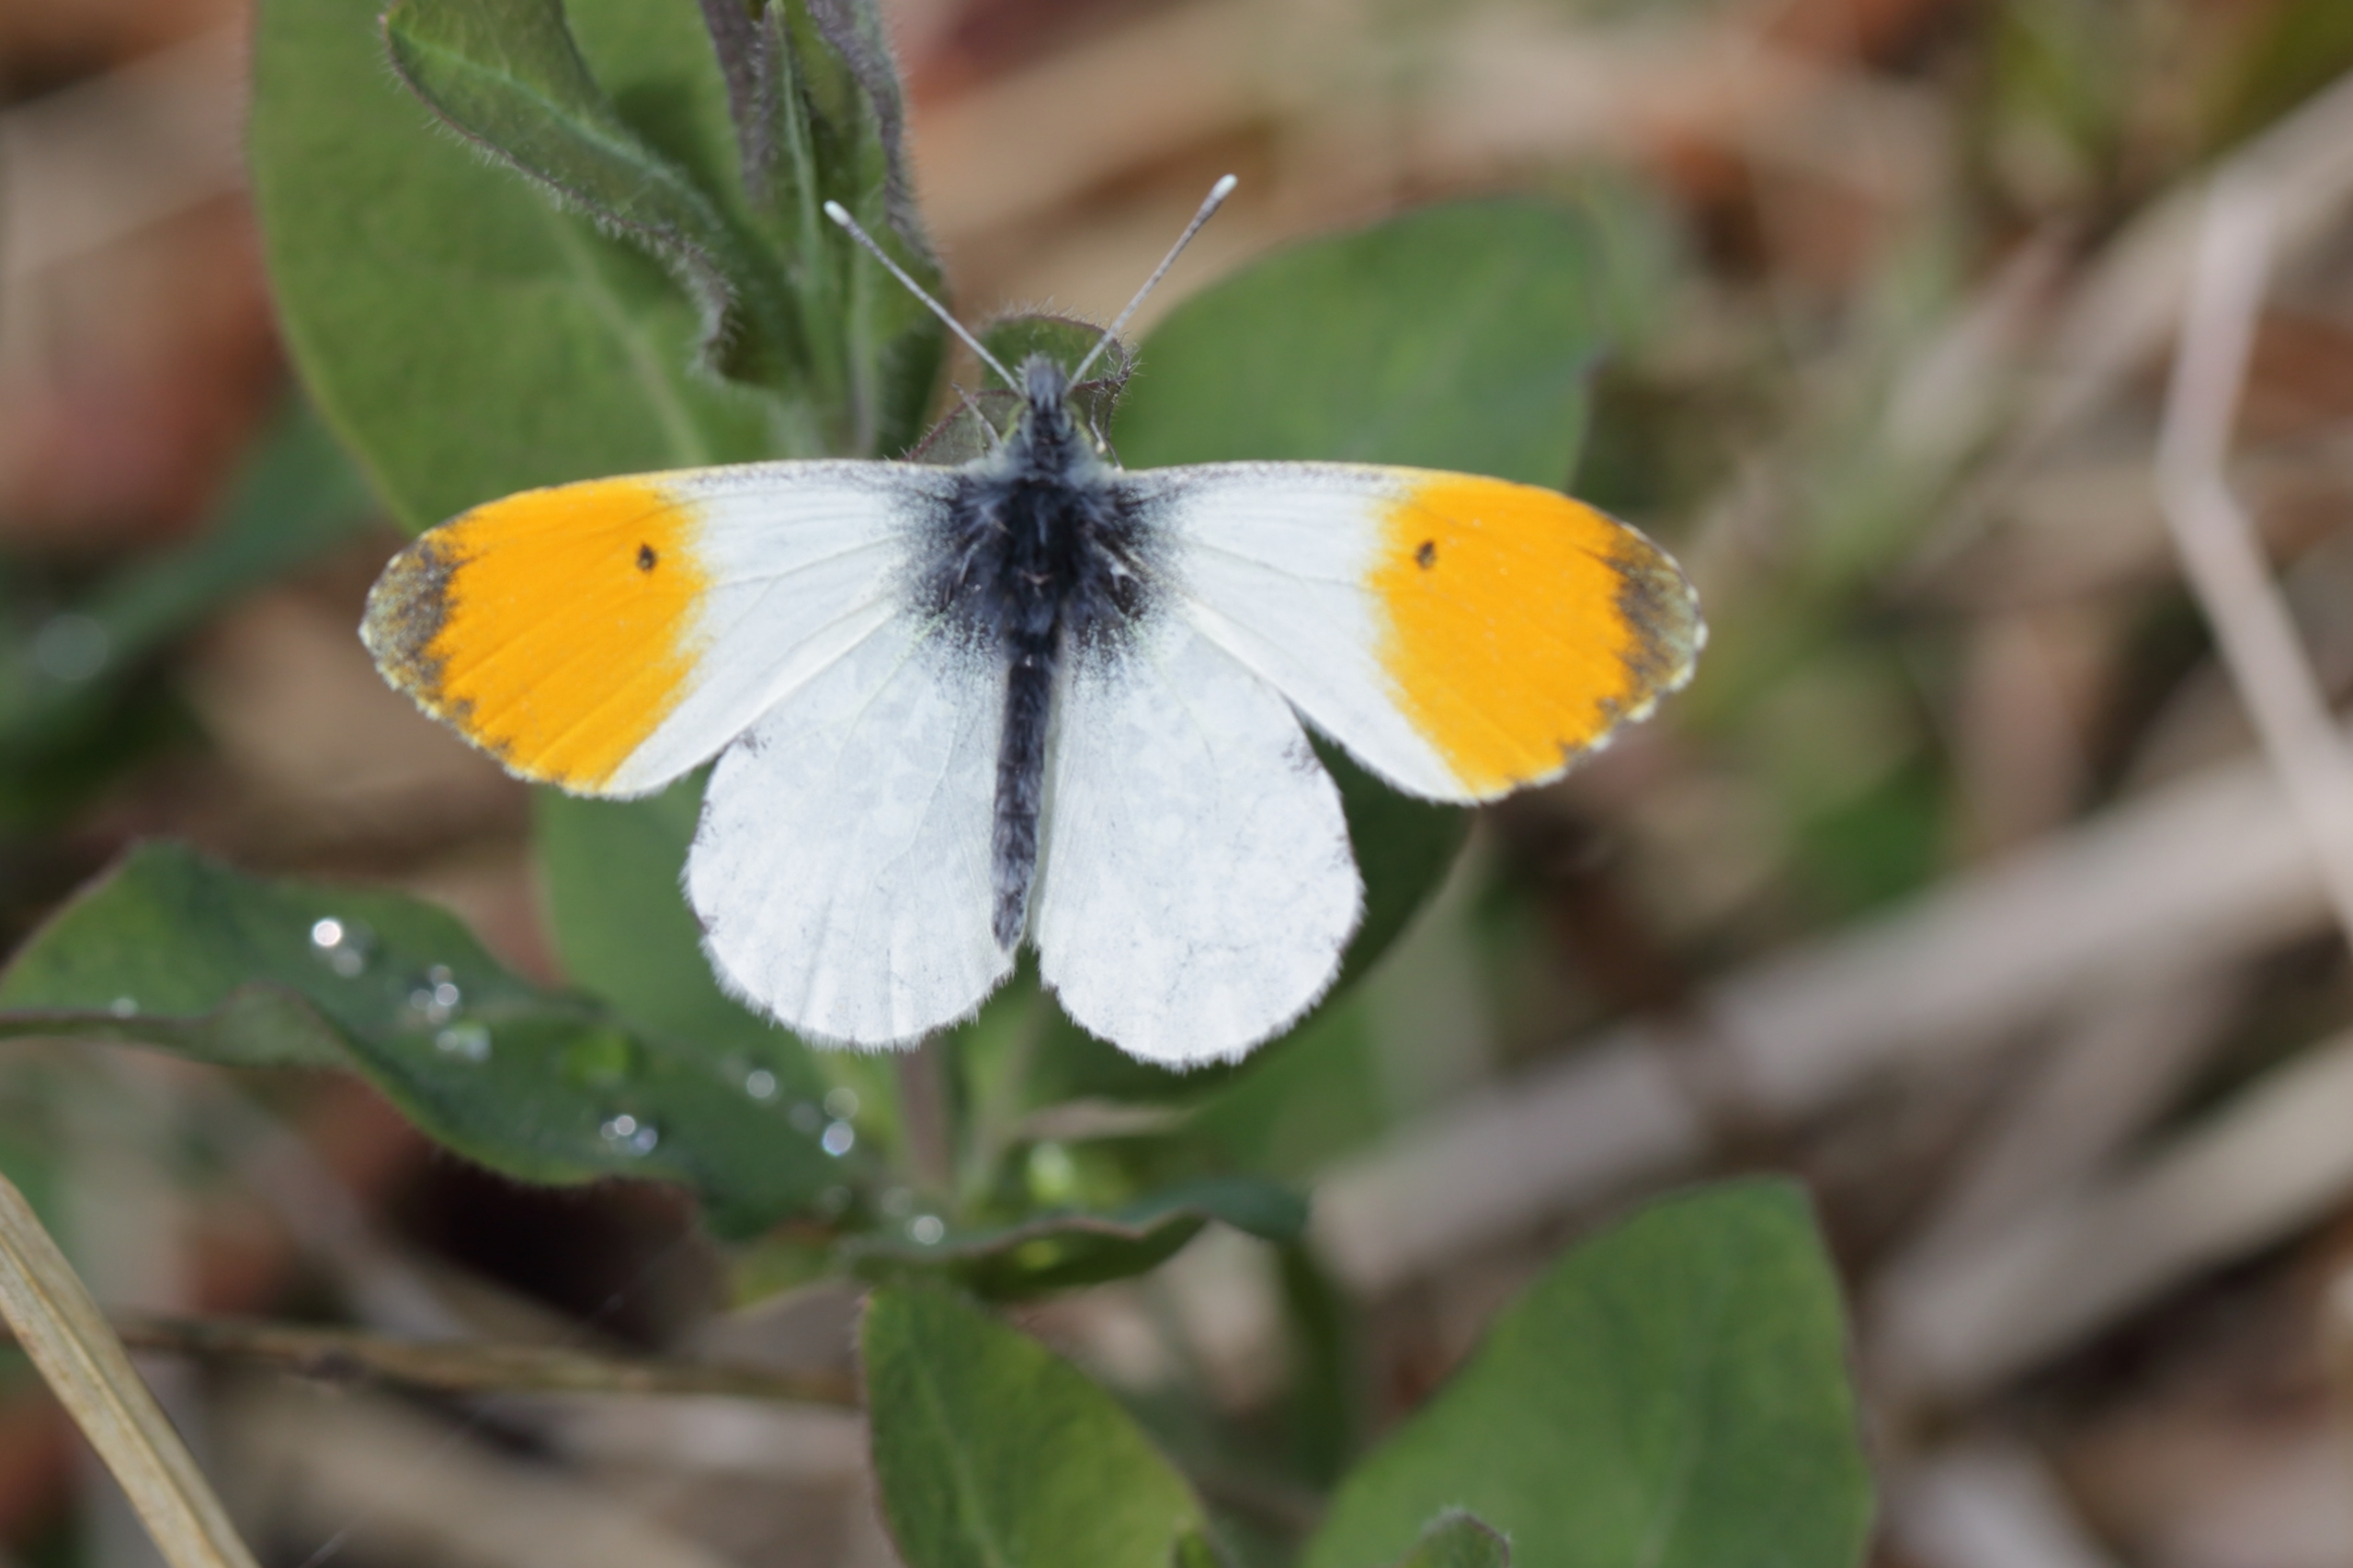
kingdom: Animalia
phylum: Arthropoda
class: Insecta
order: Lepidoptera
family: Pieridae
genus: Anthocharis
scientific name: Anthocharis cardamines
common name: Aurora
